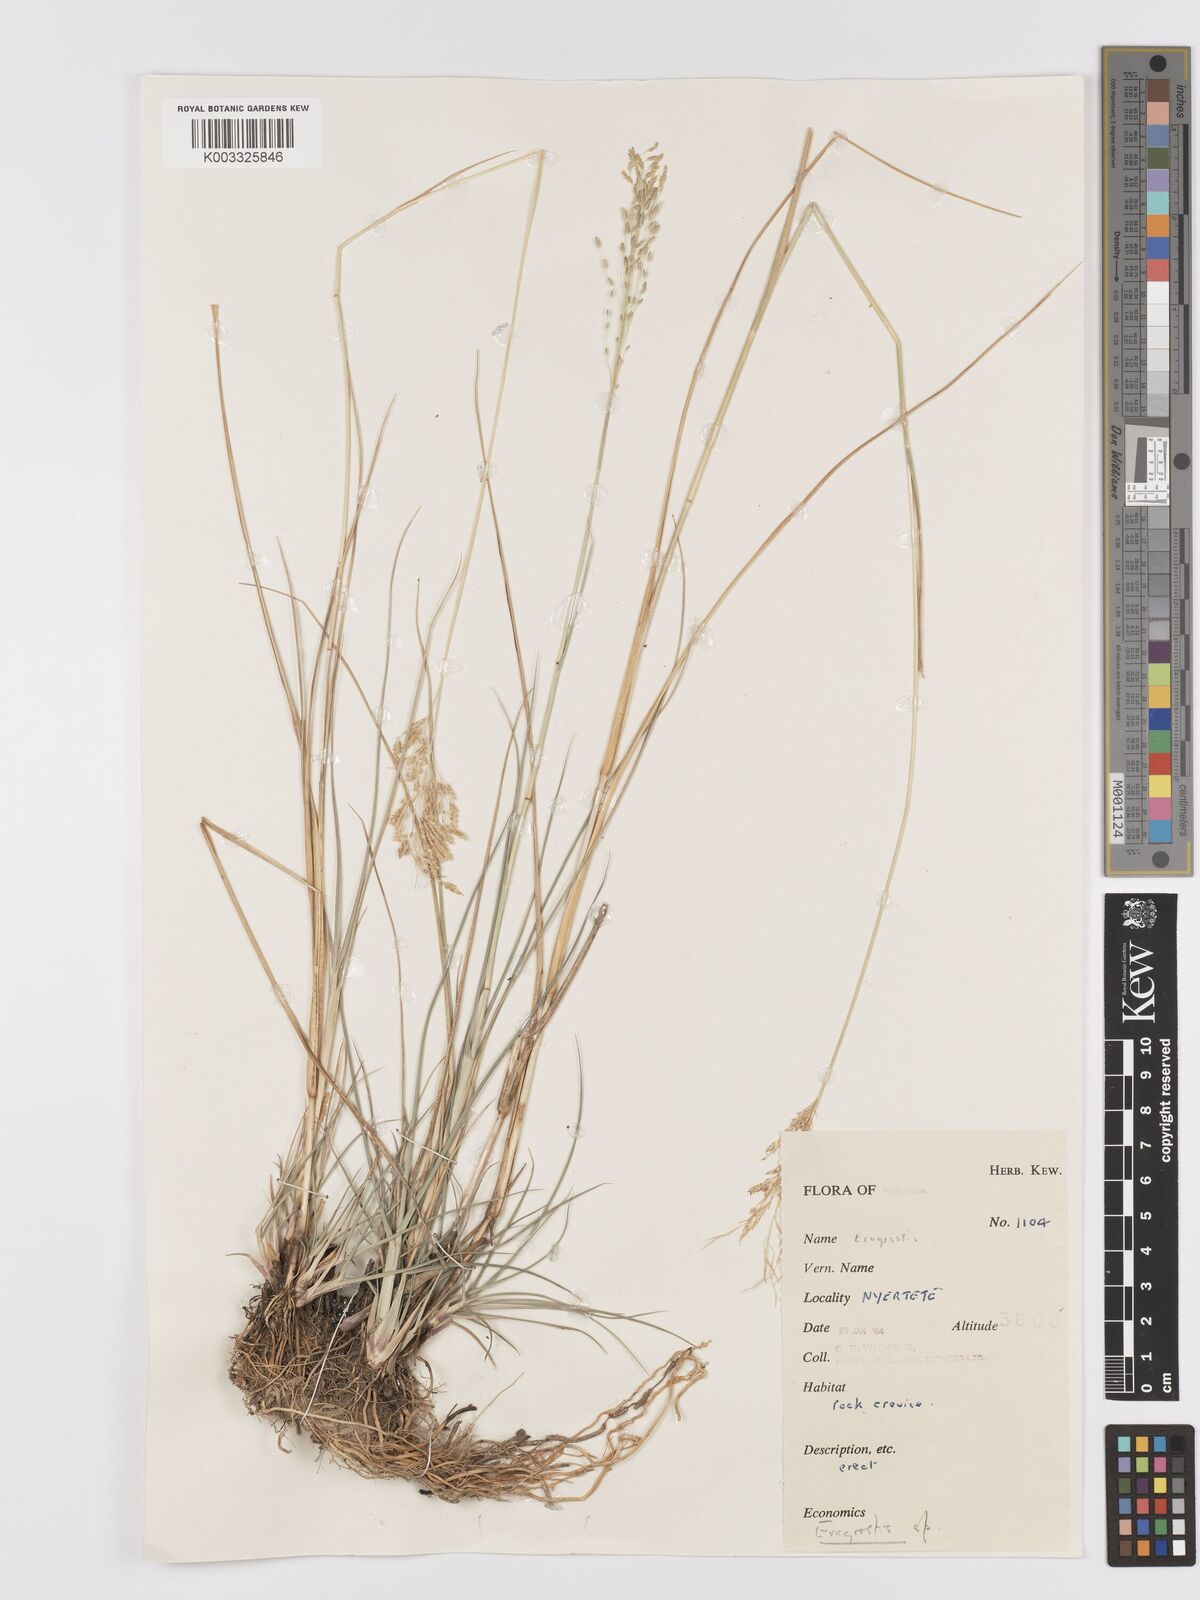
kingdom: Plantae
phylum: Tracheophyta
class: Liliopsida
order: Poales
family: Poaceae
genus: Eragrostis
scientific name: Eragrostis atrovirens
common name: Thalia lovegrass
